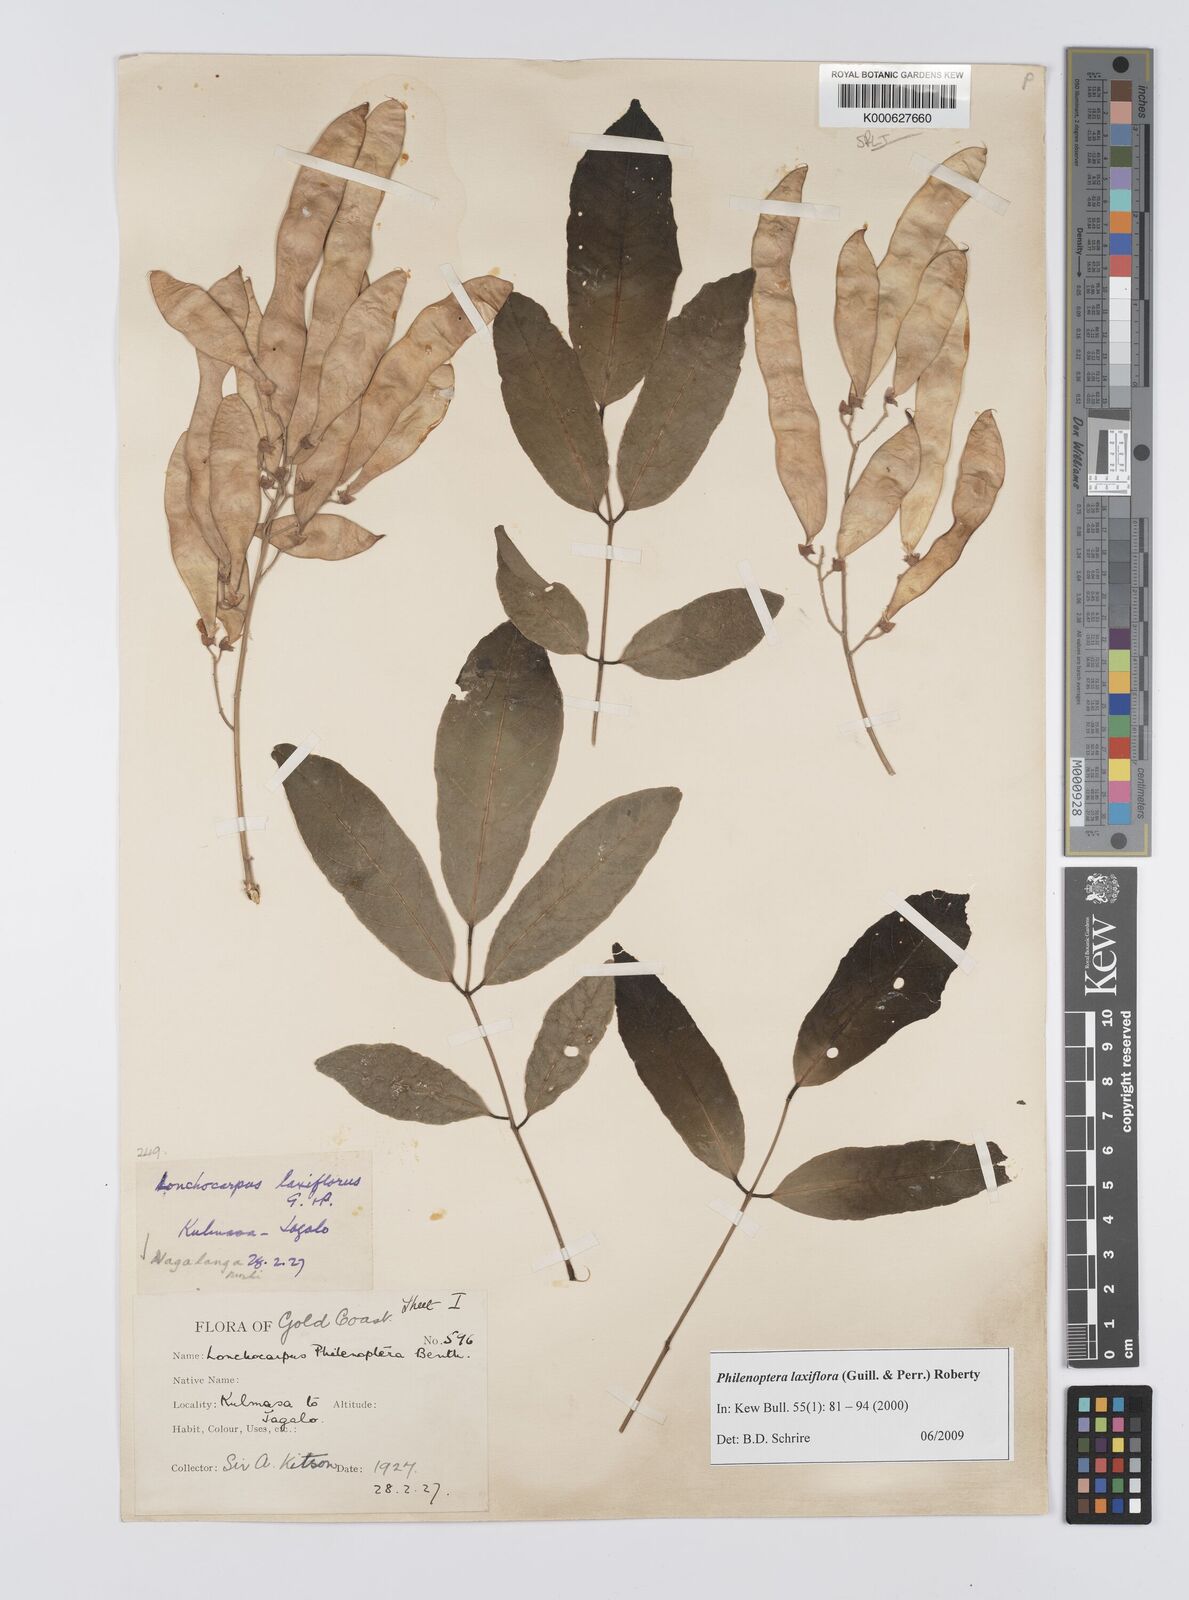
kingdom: Plantae
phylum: Tracheophyta
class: Magnoliopsida
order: Fabales
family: Fabaceae
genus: Philenoptera
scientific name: Philenoptera laxiflora
